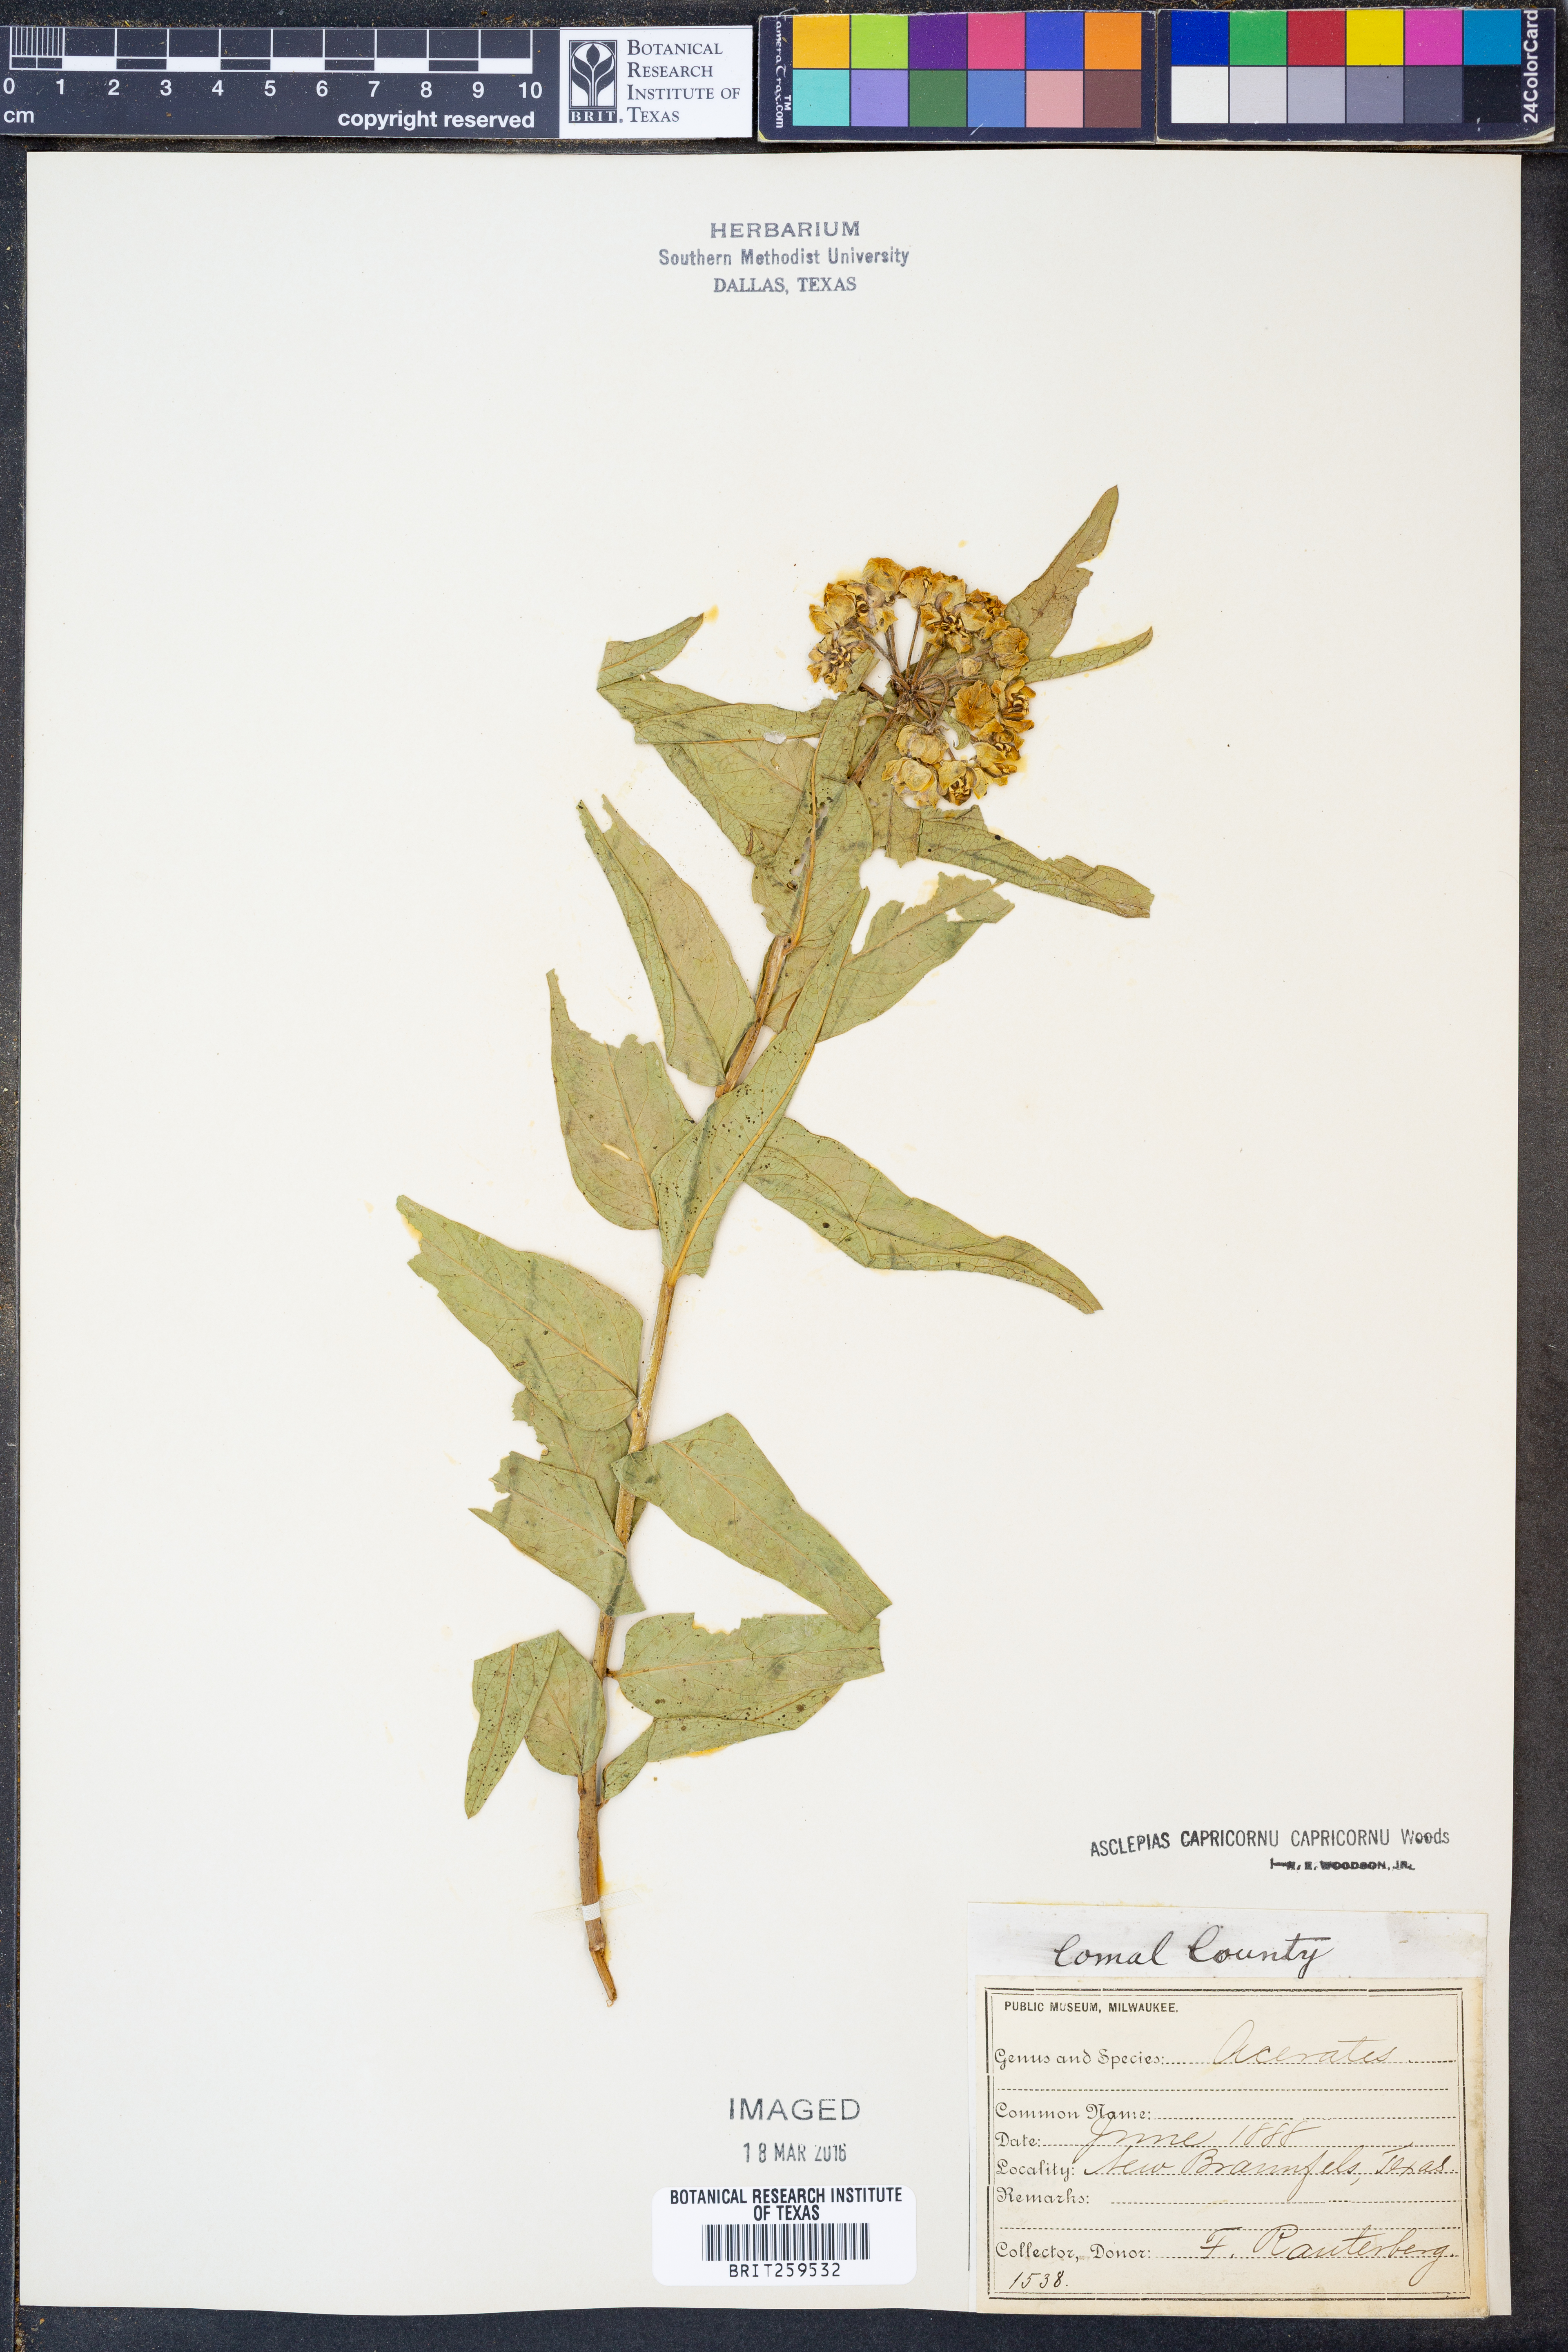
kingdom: Plantae
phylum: Tracheophyta
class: Magnoliopsida
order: Gentianales
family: Apocynaceae
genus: Asclepias
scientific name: Asclepias asperula
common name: Antelope horns
